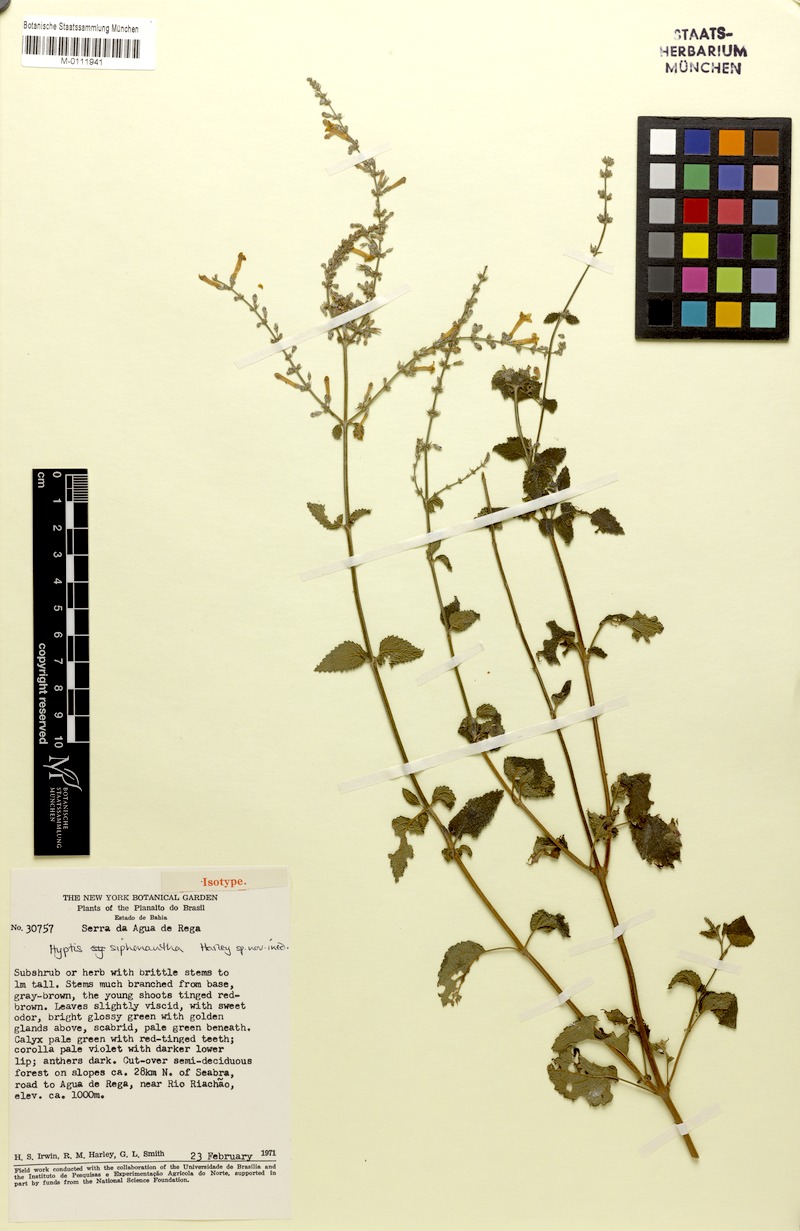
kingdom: Plantae
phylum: Tracheophyta
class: Magnoliopsida
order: Lamiales
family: Lamiaceae
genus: Leptohyptis
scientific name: Leptohyptis siphonantha
